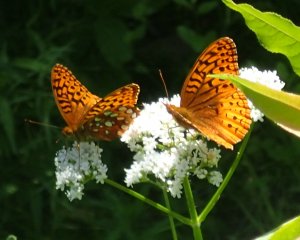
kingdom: Animalia
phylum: Arthropoda
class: Insecta
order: Lepidoptera
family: Nymphalidae
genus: Speyeria
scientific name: Speyeria cybele
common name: Great Spangled Fritillary
